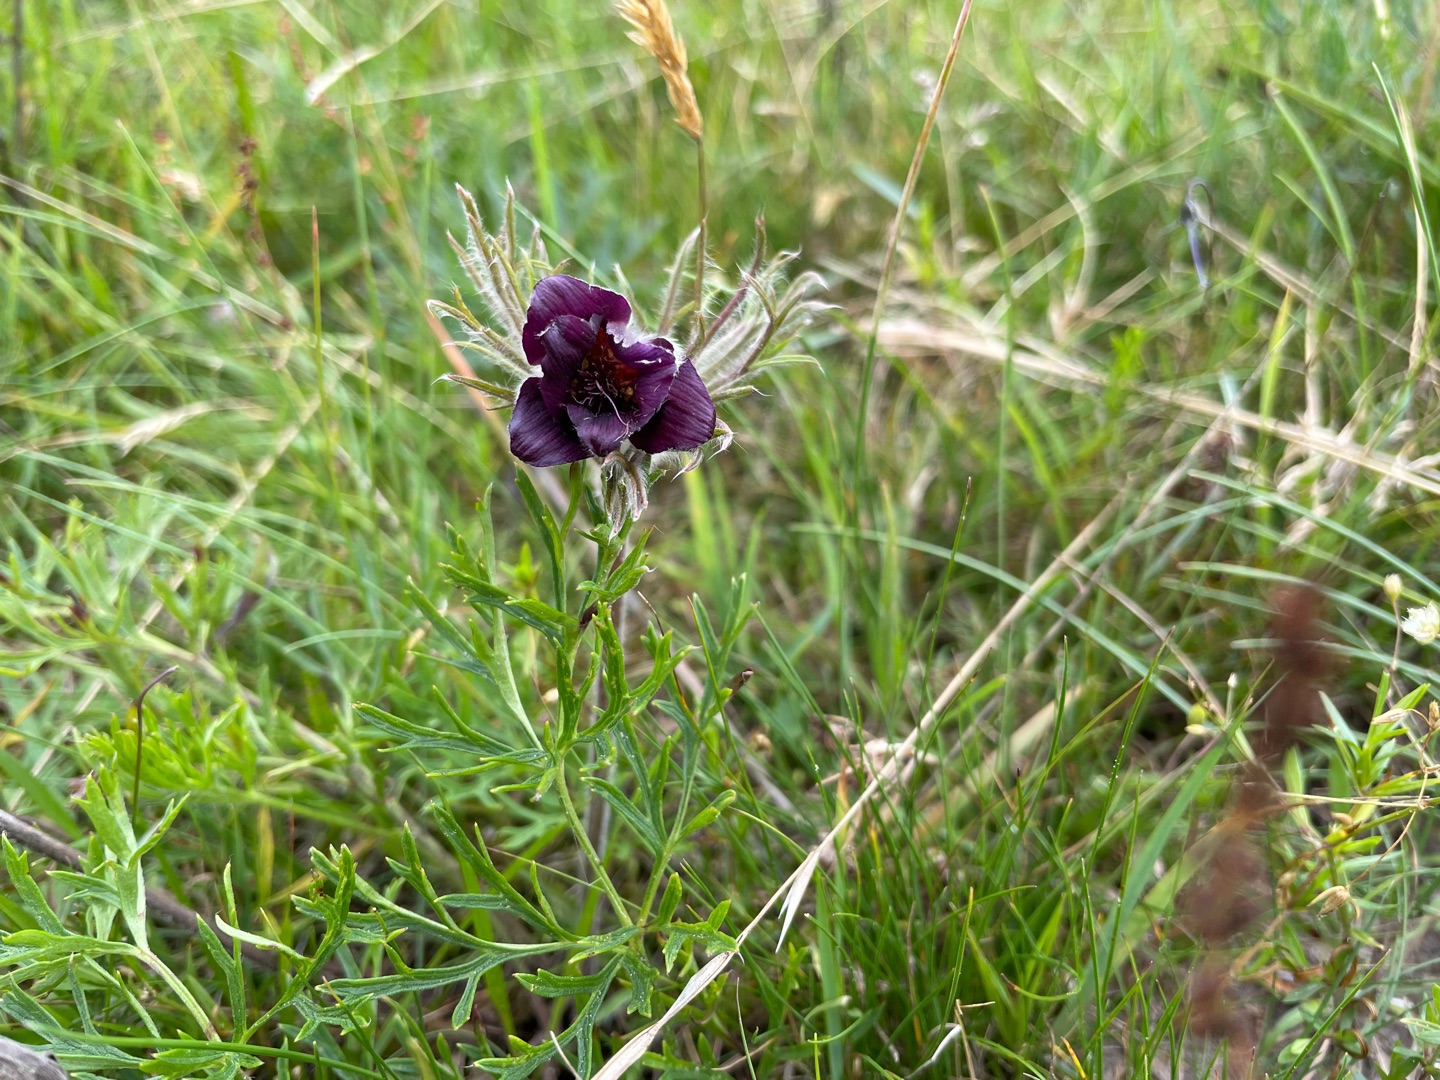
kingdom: Plantae
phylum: Tracheophyta
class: Magnoliopsida
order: Ranunculales
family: Ranunculaceae
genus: Pulsatilla
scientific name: Pulsatilla vulgaris
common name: Opret kobjælde
